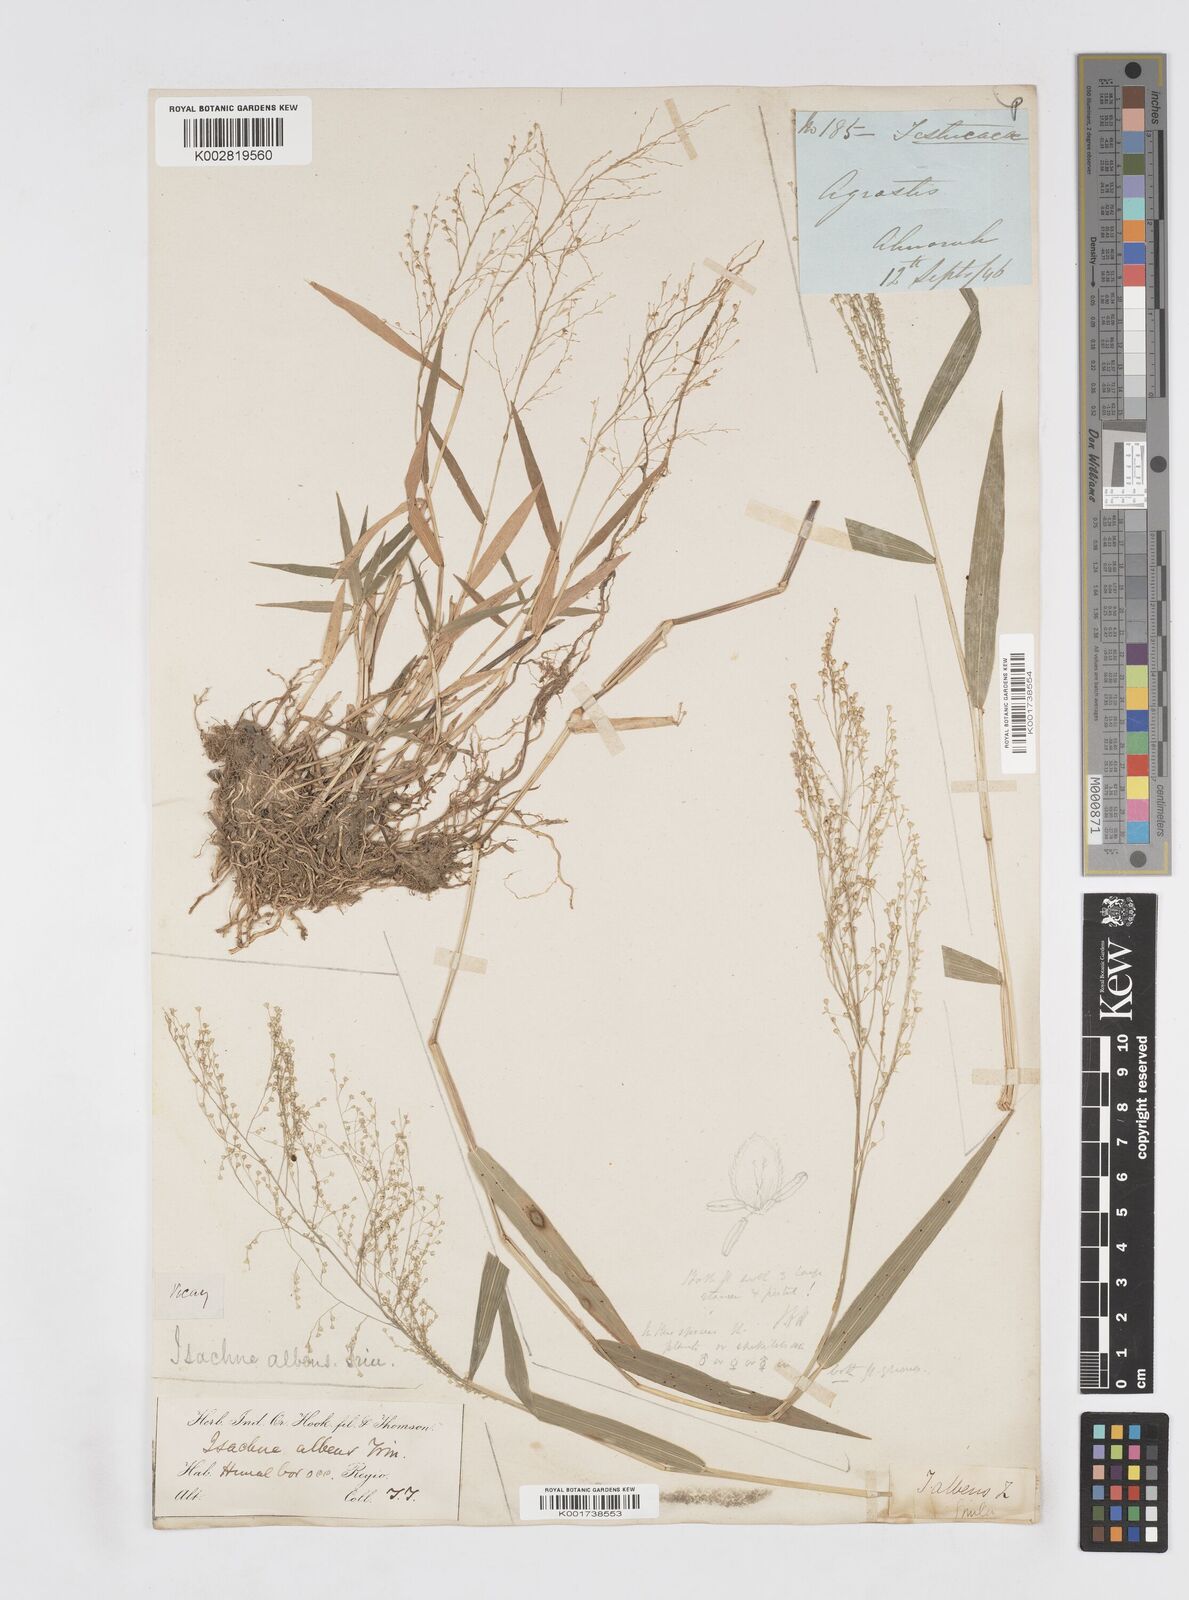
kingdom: Plantae
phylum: Tracheophyta
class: Liliopsida
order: Poales
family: Poaceae
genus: Isachne
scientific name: Isachne albens
